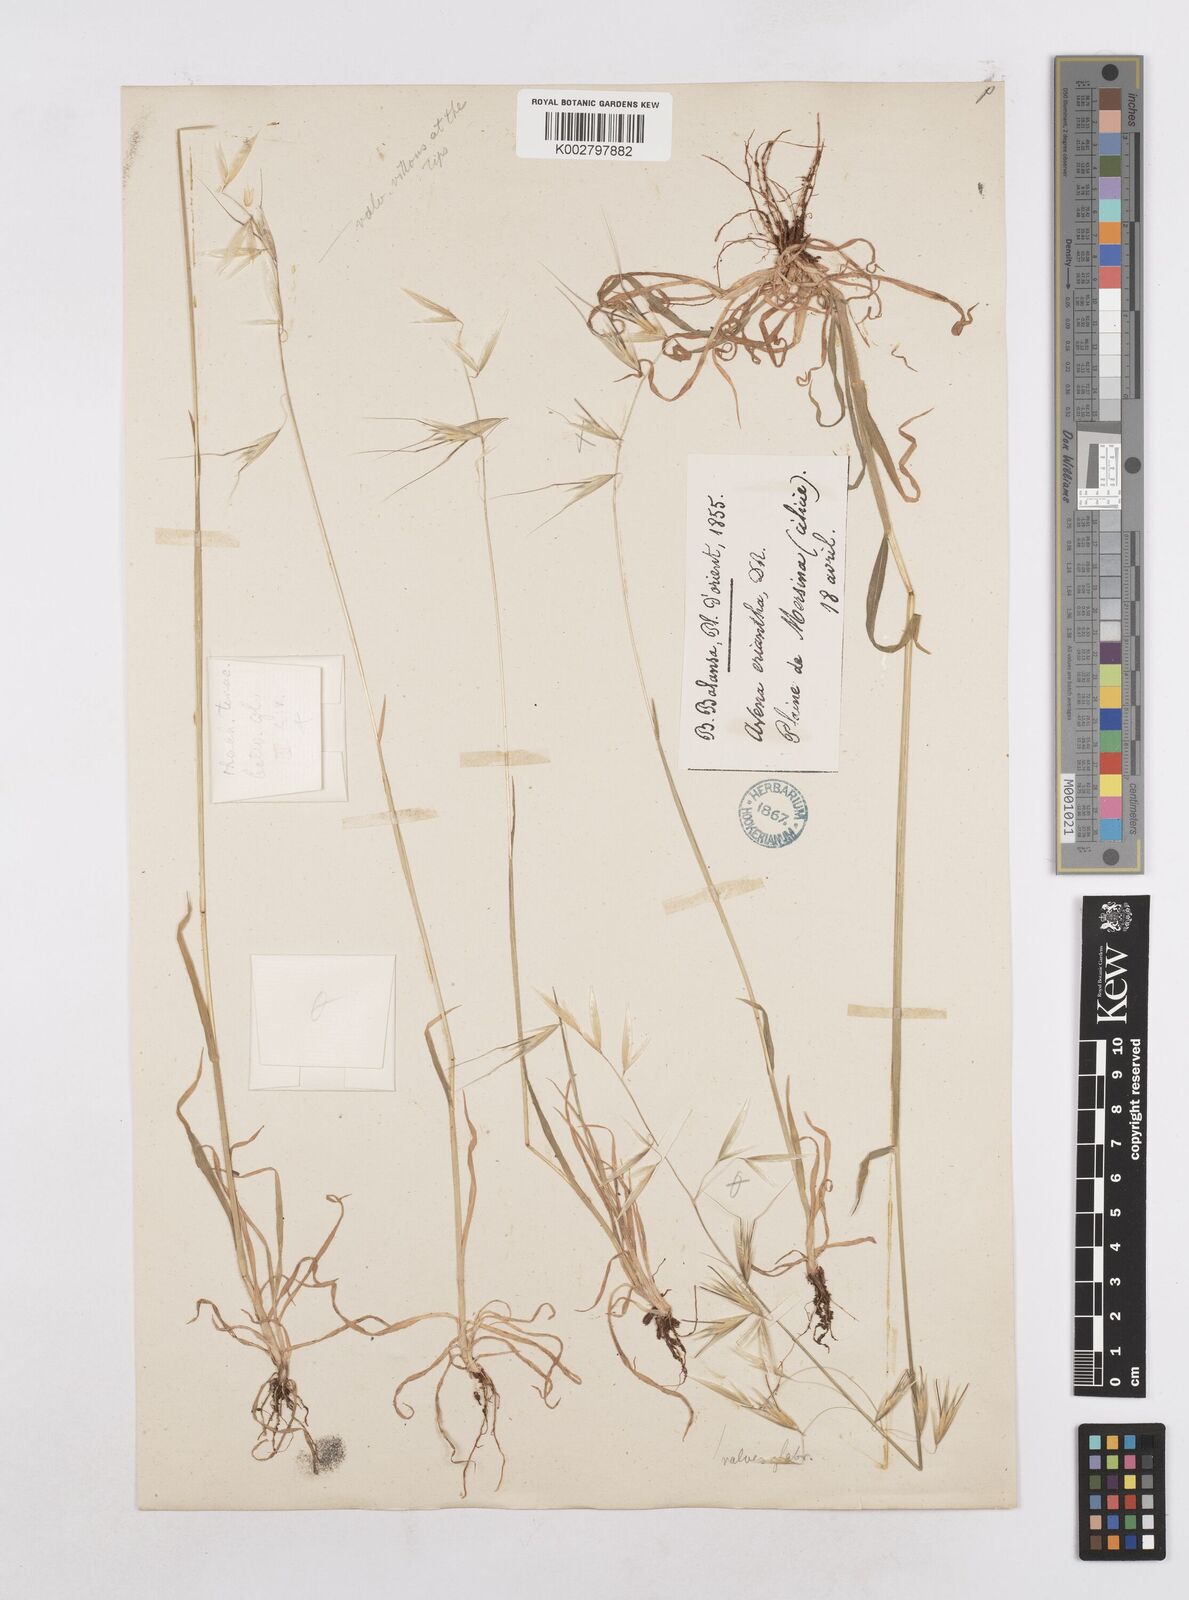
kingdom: Plantae
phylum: Tracheophyta
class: Liliopsida
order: Poales
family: Poaceae
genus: Avena
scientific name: Avena eriantha
